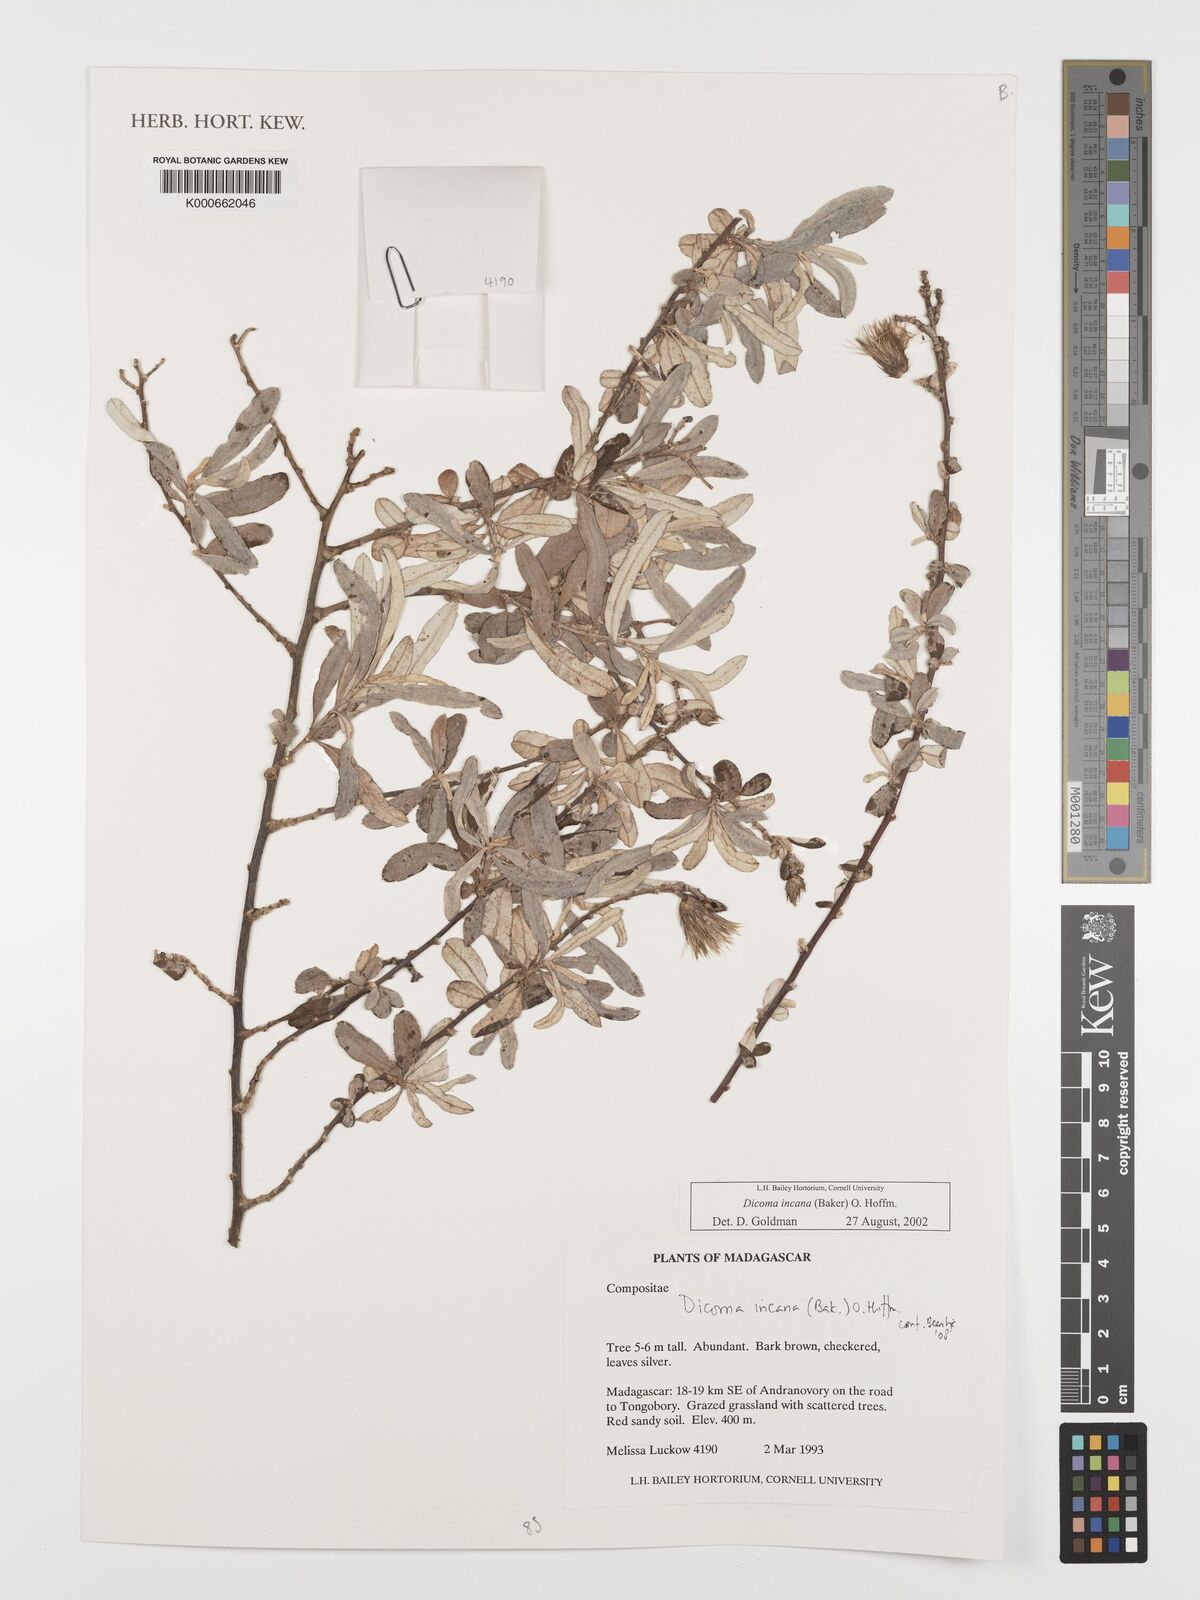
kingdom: Plantae
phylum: Tracheophyta
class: Magnoliopsida
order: Asterales
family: Asteraceae
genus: Dicoma
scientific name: Dicoma incana
